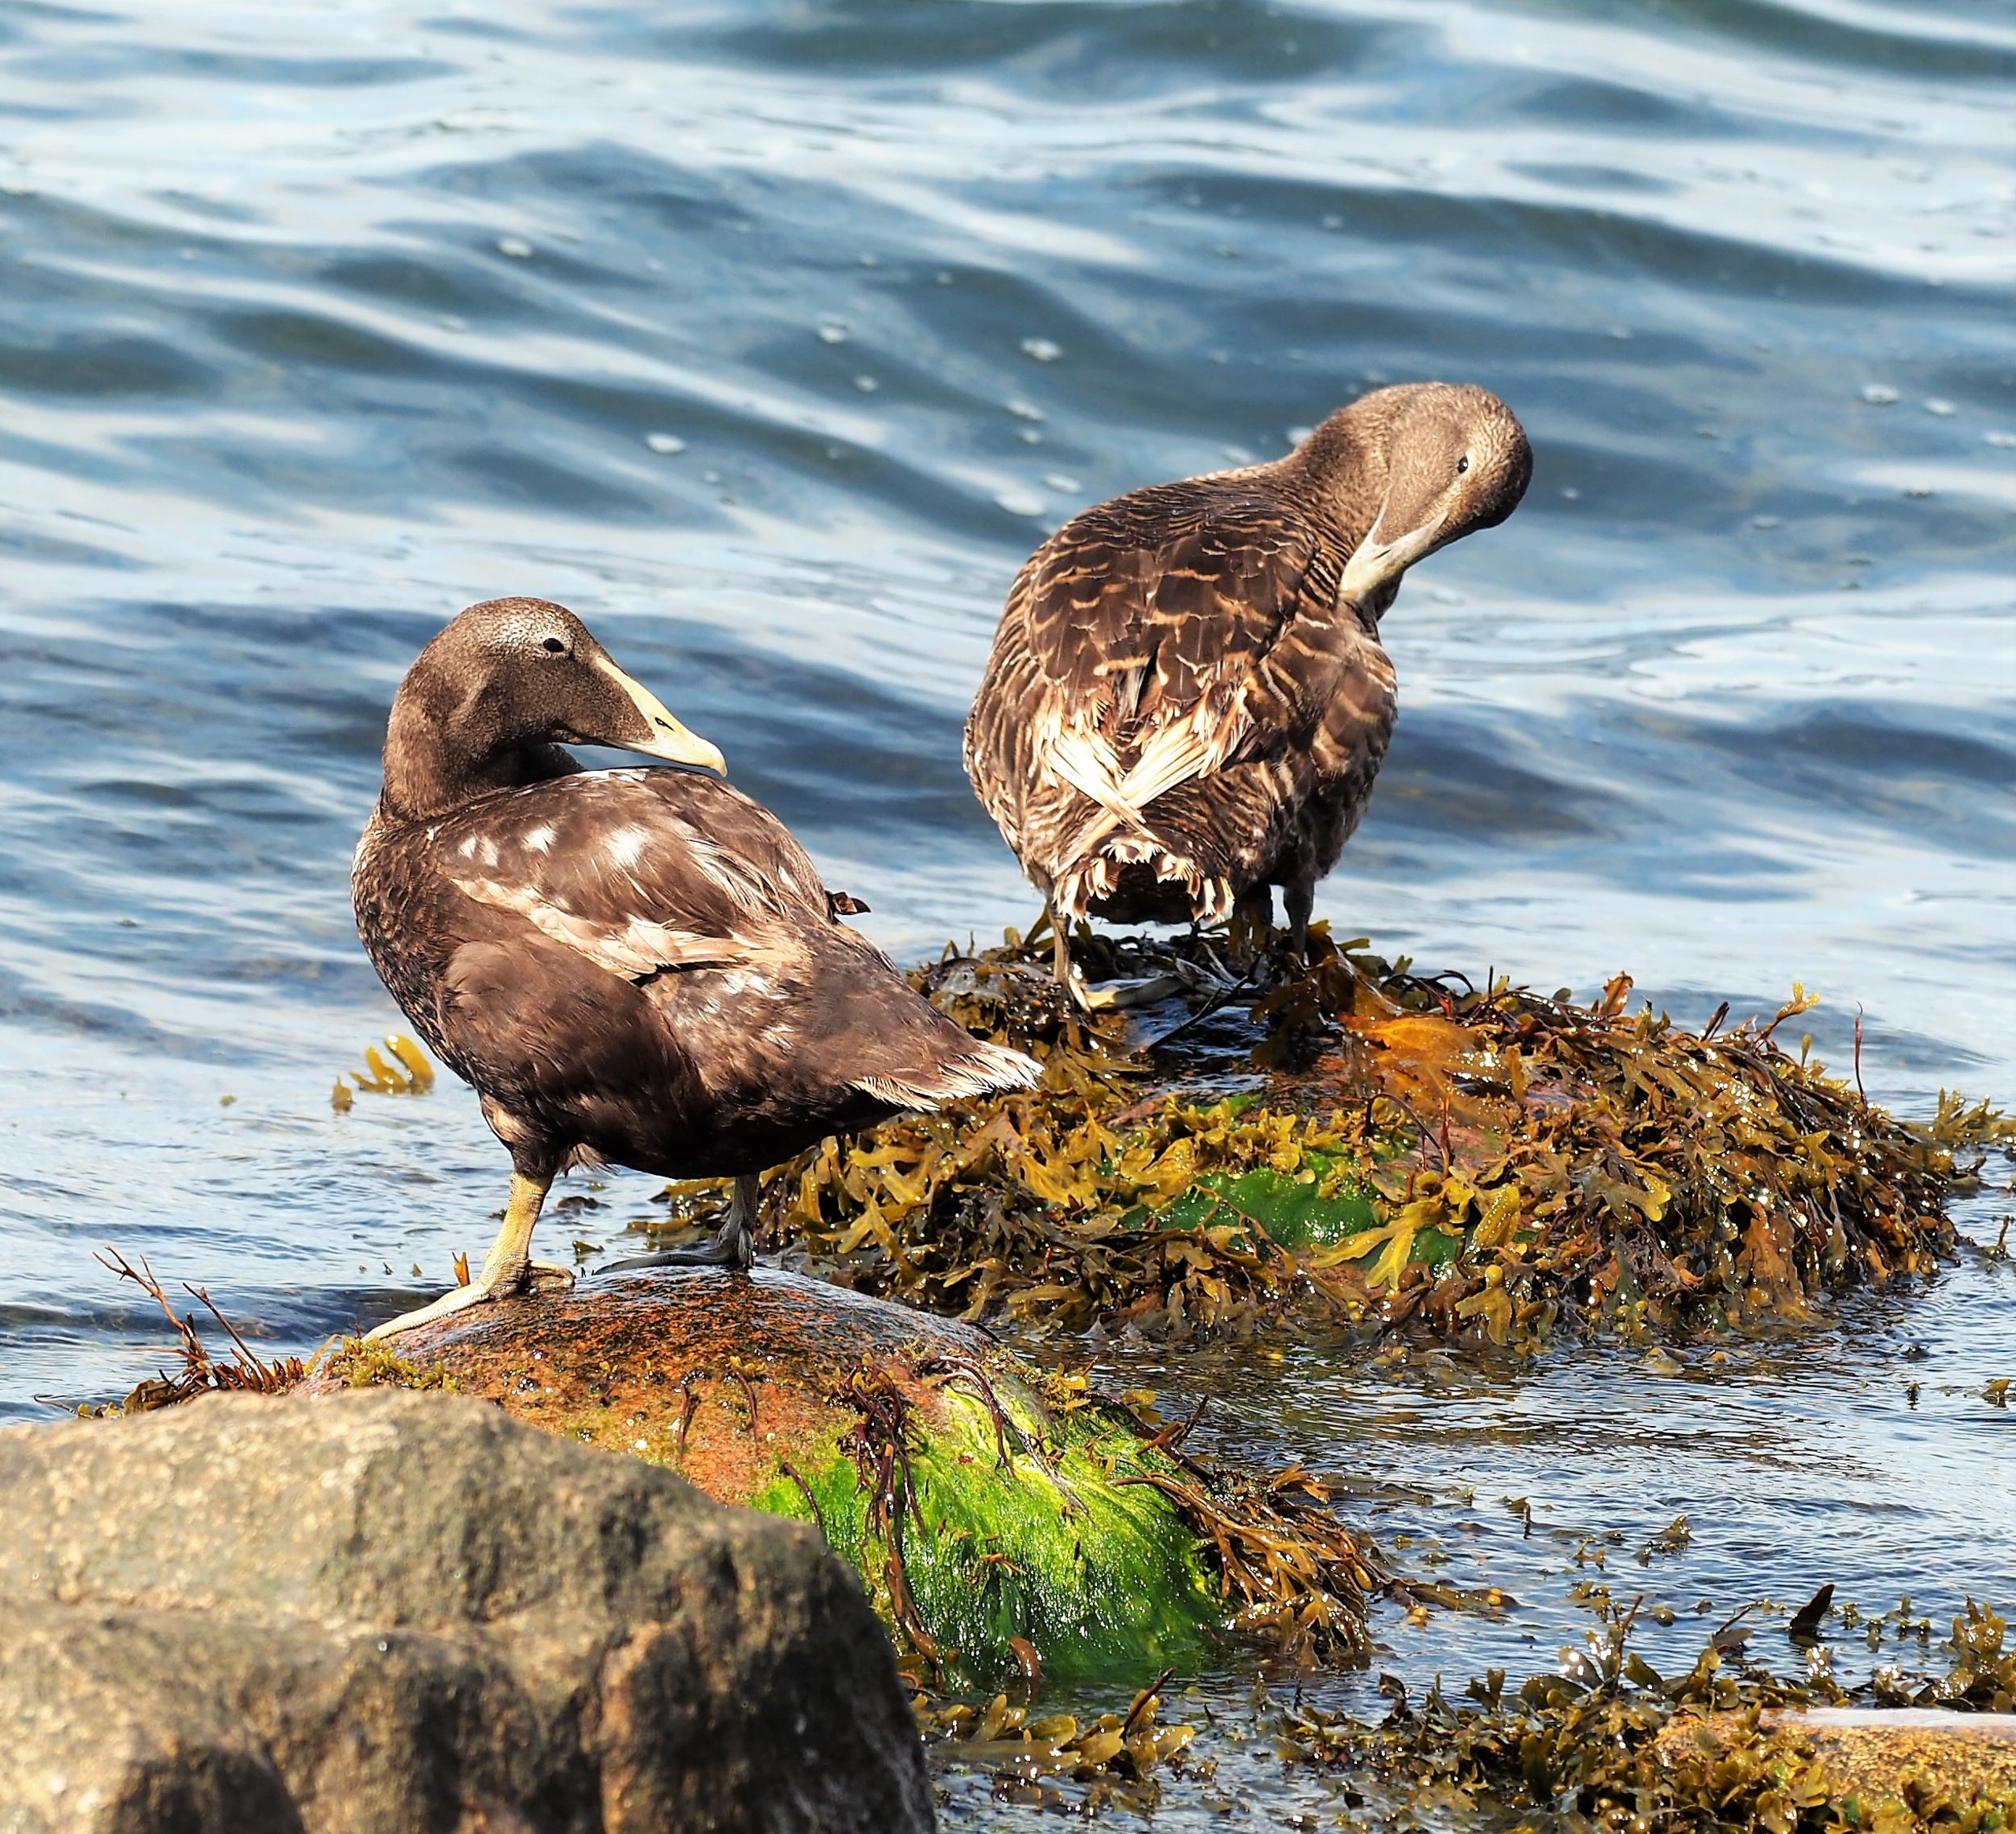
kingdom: Animalia
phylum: Chordata
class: Aves
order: Anseriformes
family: Anatidae
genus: Somateria
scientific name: Somateria mollissima
